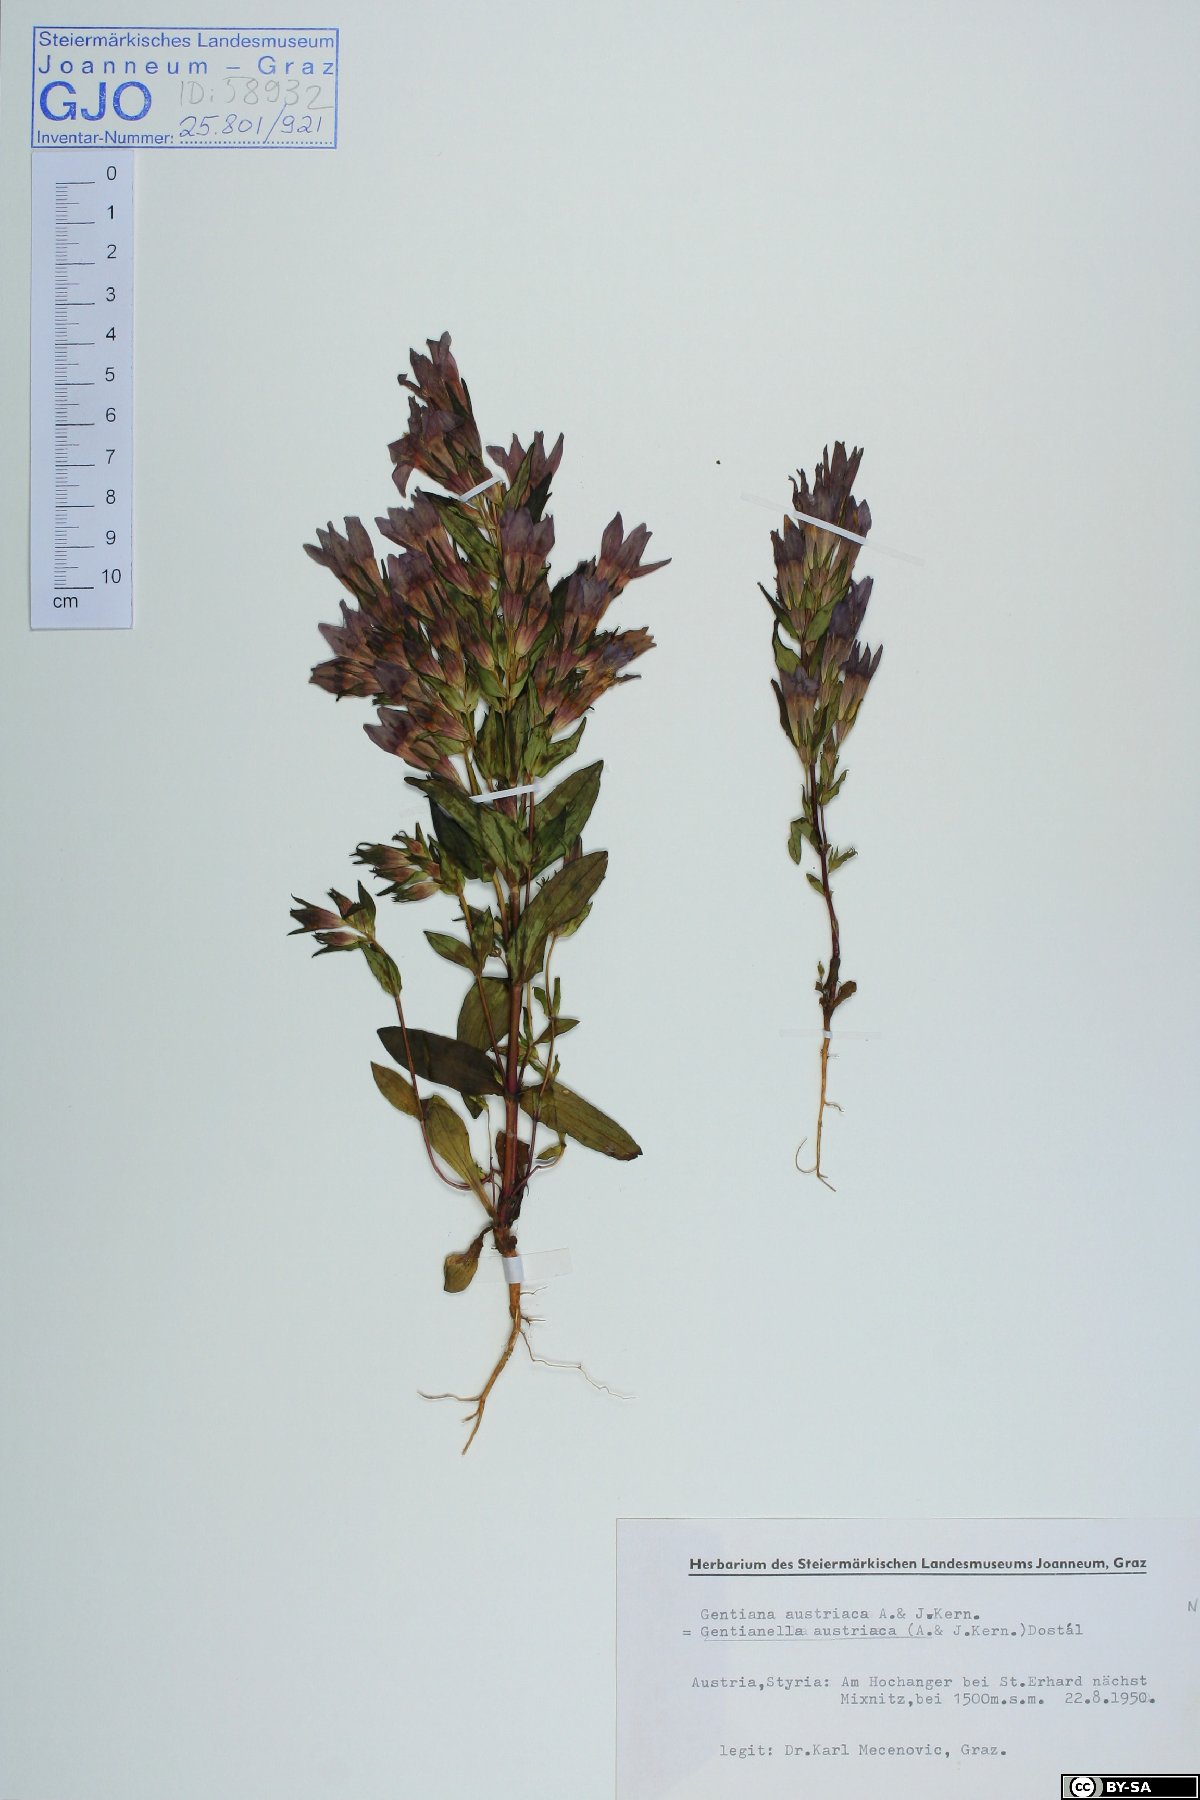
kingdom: Plantae
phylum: Tracheophyta
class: Magnoliopsida
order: Gentianales
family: Gentianaceae
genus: Gentianella
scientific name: Gentianella austriaca
